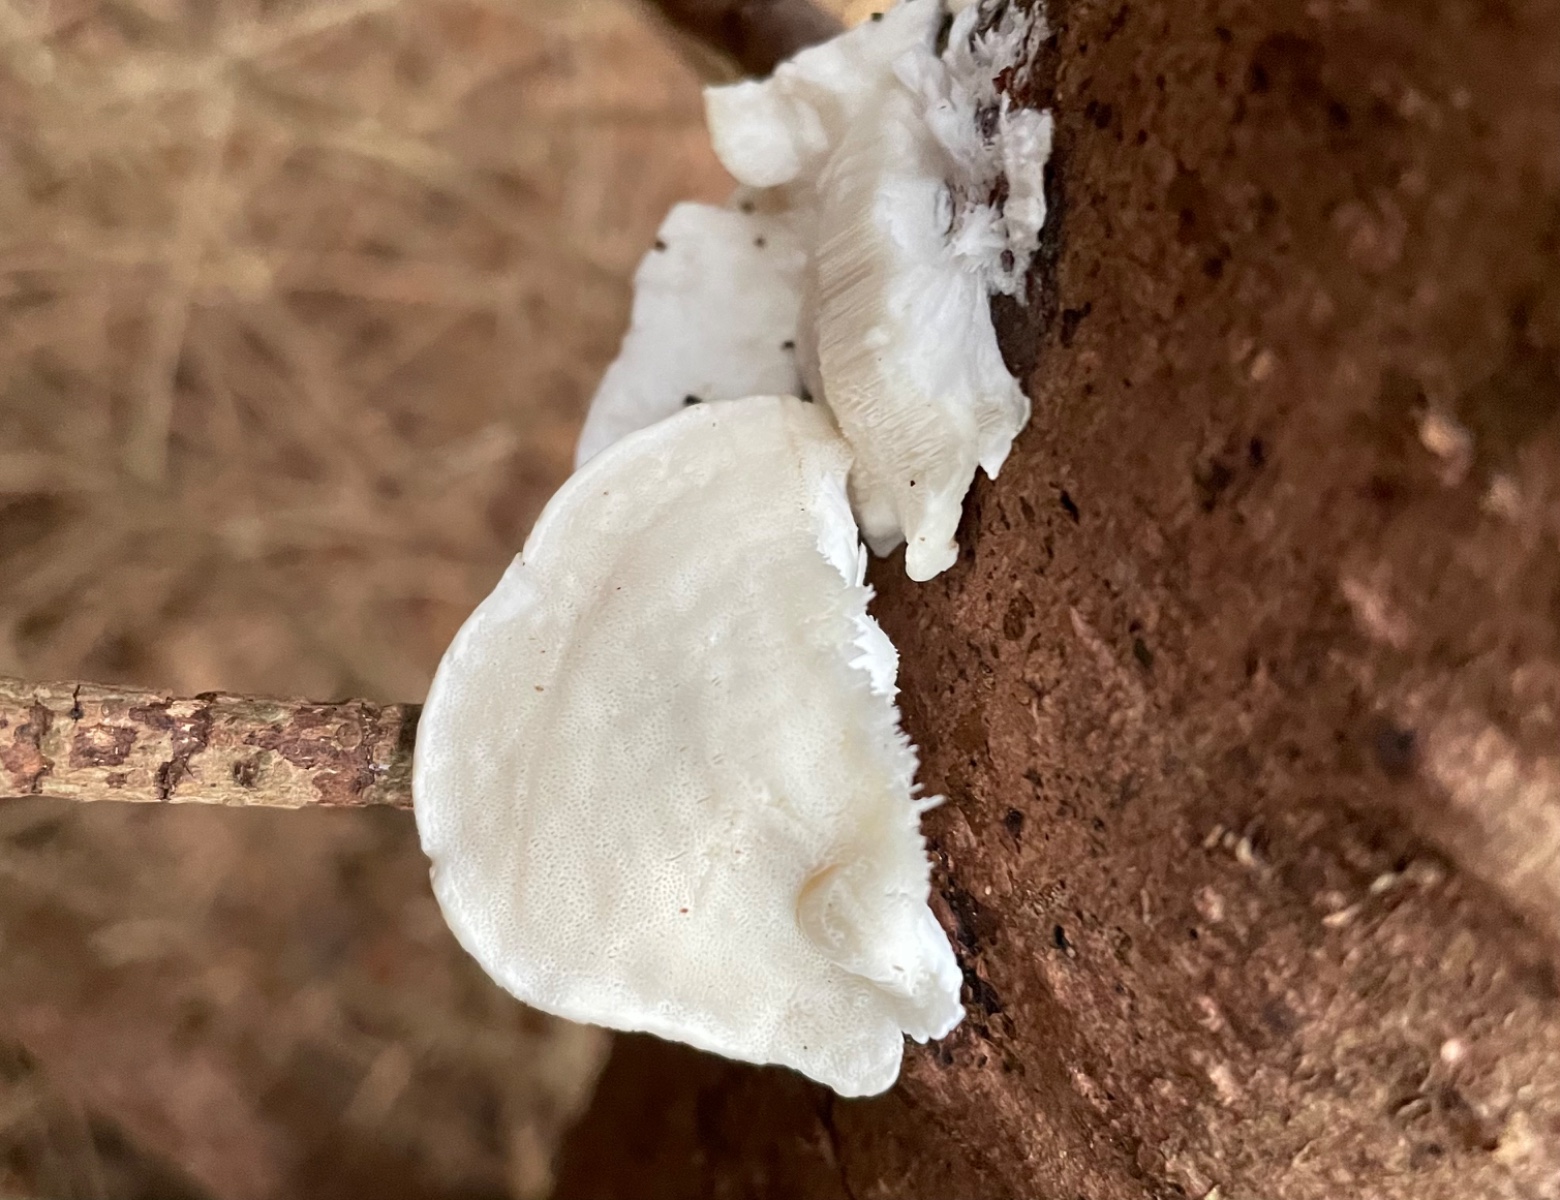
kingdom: Fungi
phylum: Basidiomycota
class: Agaricomycetes
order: Polyporales
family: Incrustoporiaceae
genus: Tyromyces
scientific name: Tyromyces lacteus
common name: mælkehvid kødporesvamp
